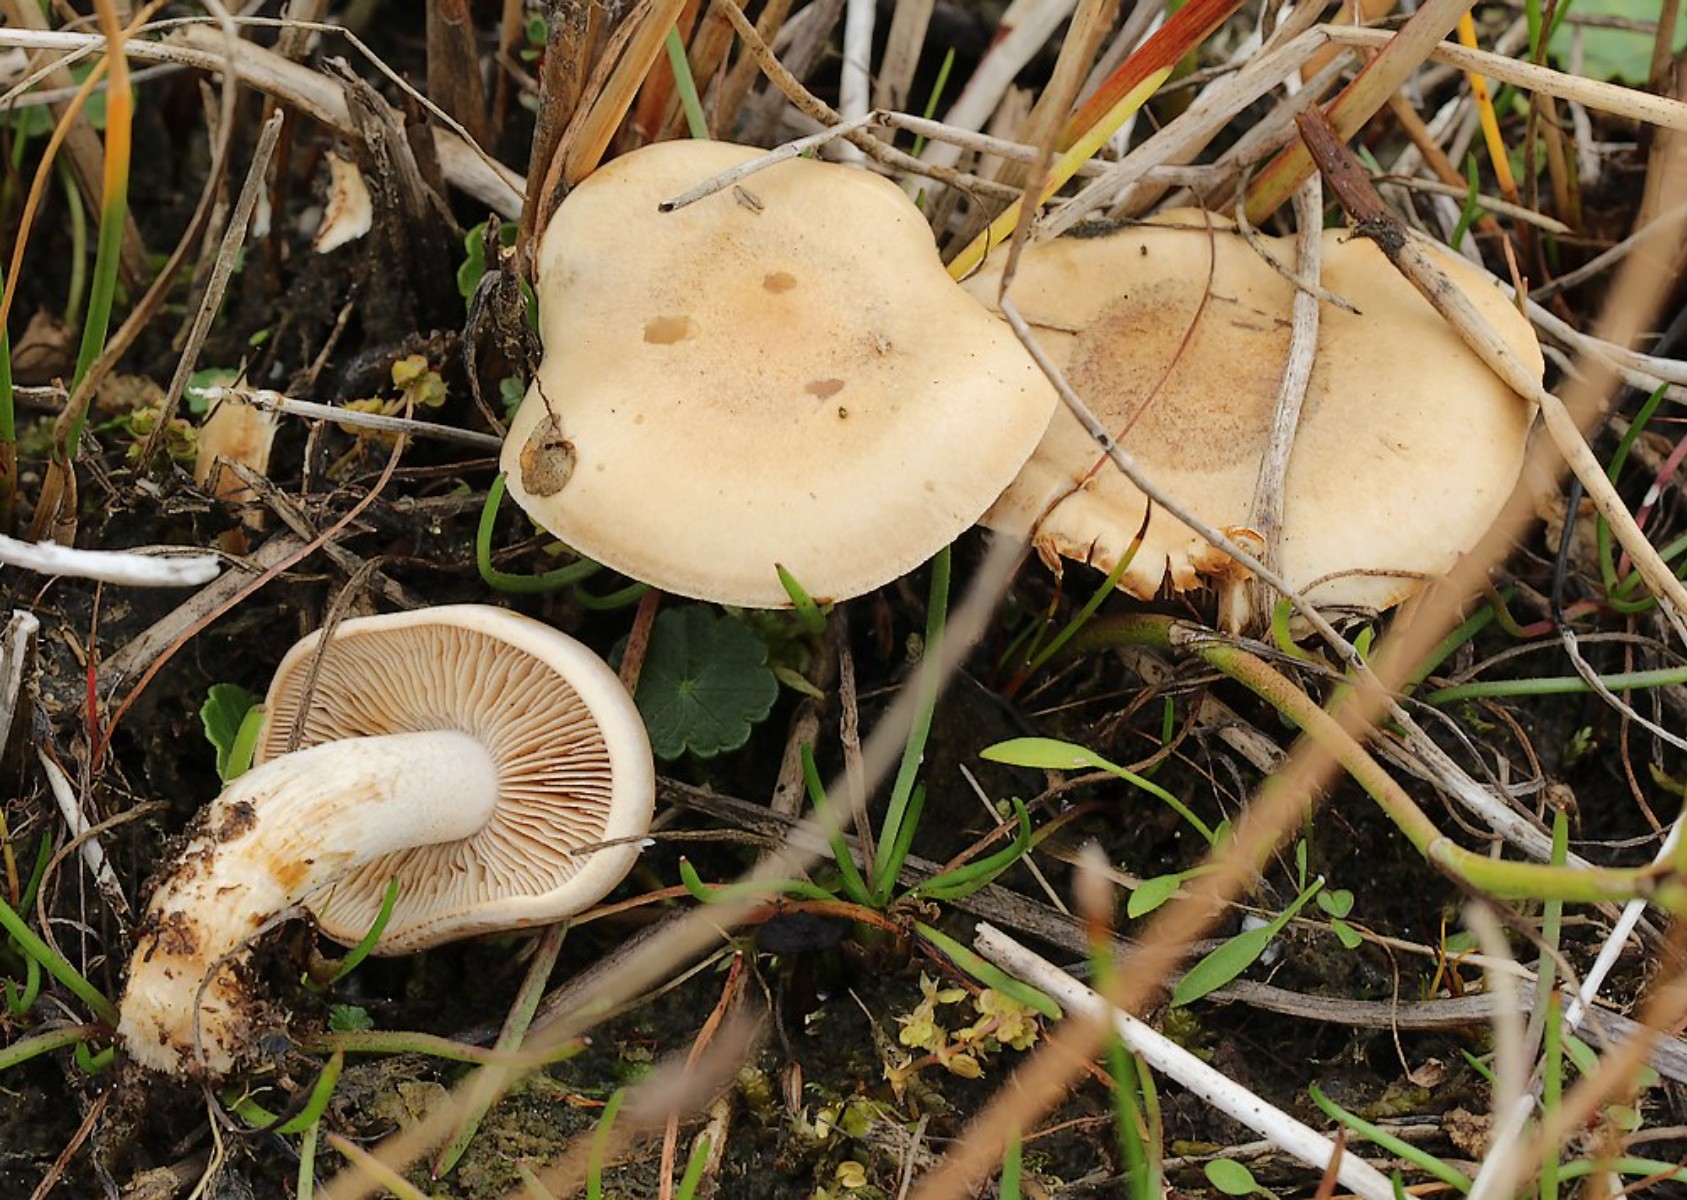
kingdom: Fungi
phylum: Basidiomycota
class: Agaricomycetes
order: Agaricales
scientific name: Agaricales
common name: champignonordenen
